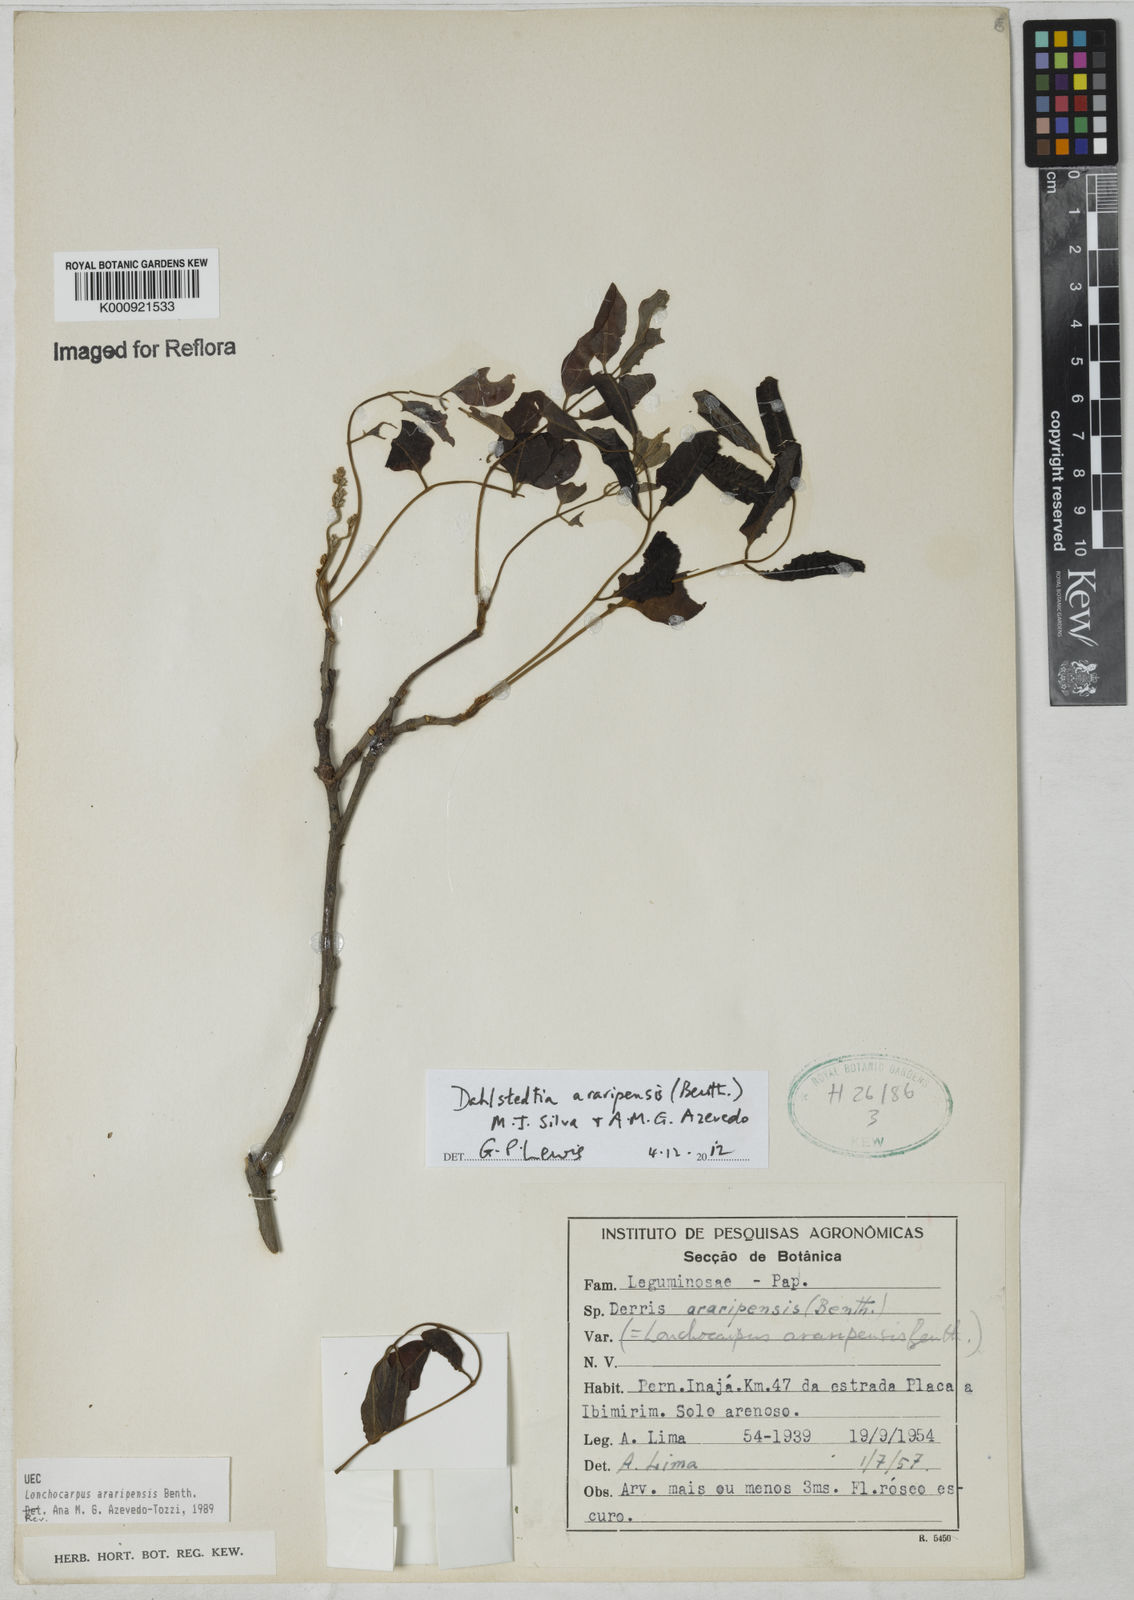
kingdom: Plantae
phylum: Tracheophyta
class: Magnoliopsida
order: Fabales
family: Fabaceae
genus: Dahlstedtia
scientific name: Dahlstedtia araripensis
